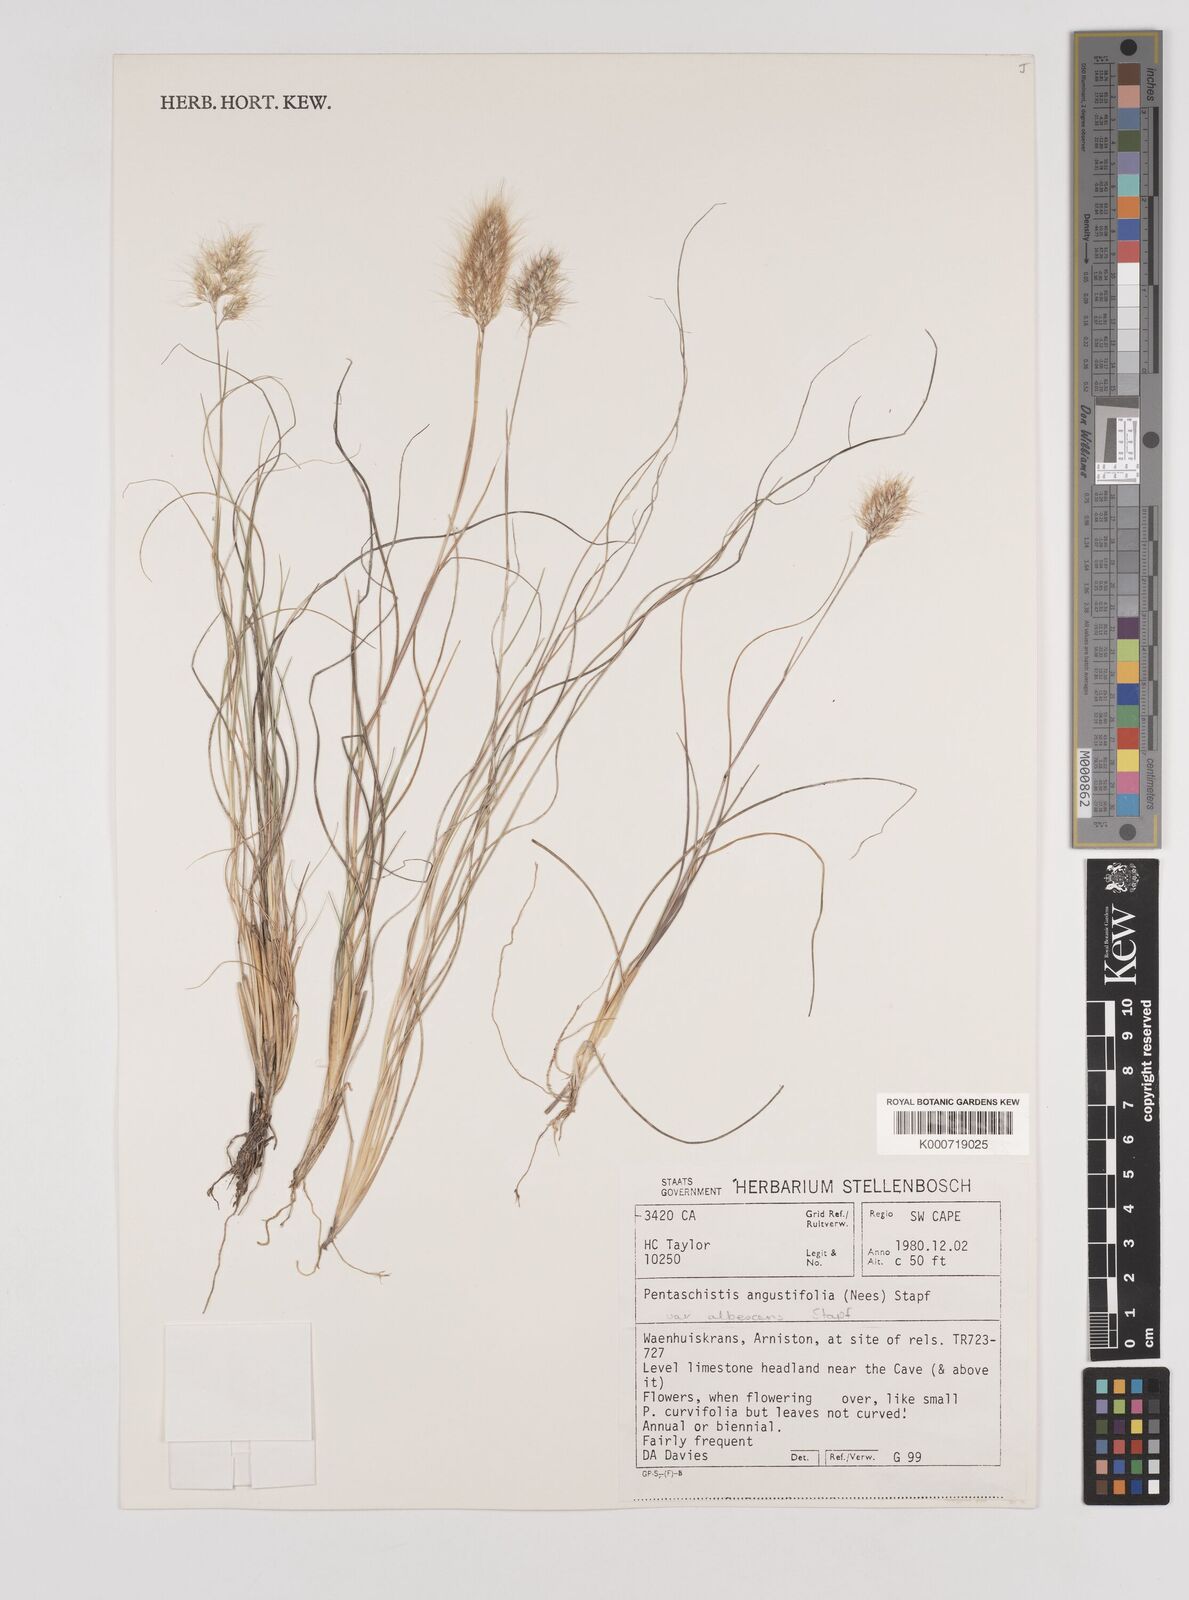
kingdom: Plantae
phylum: Tracheophyta
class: Liliopsida
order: Poales
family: Poaceae
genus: Pentameris
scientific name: Pentameris pallida
